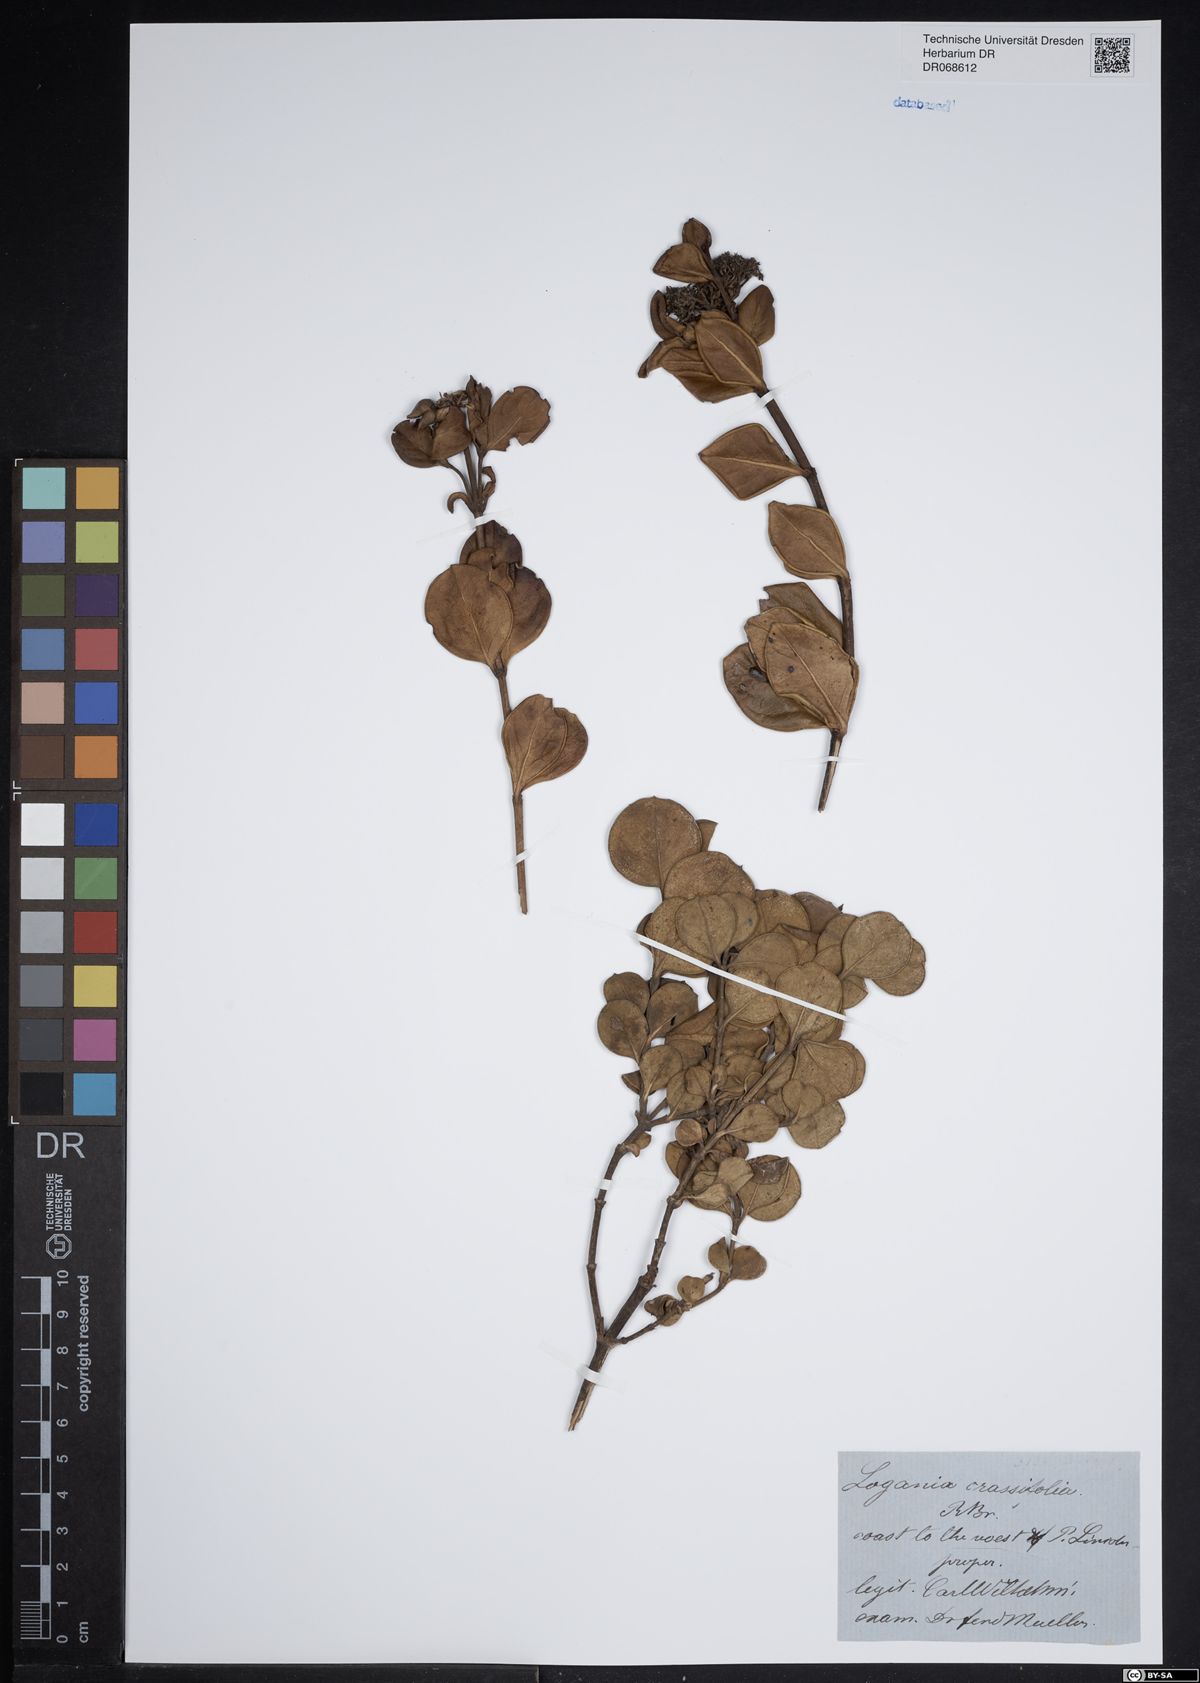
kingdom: Plantae
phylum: Tracheophyta
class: Magnoliopsida
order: Gentianales
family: Loganiaceae
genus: Logania
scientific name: Logania crassifolia
